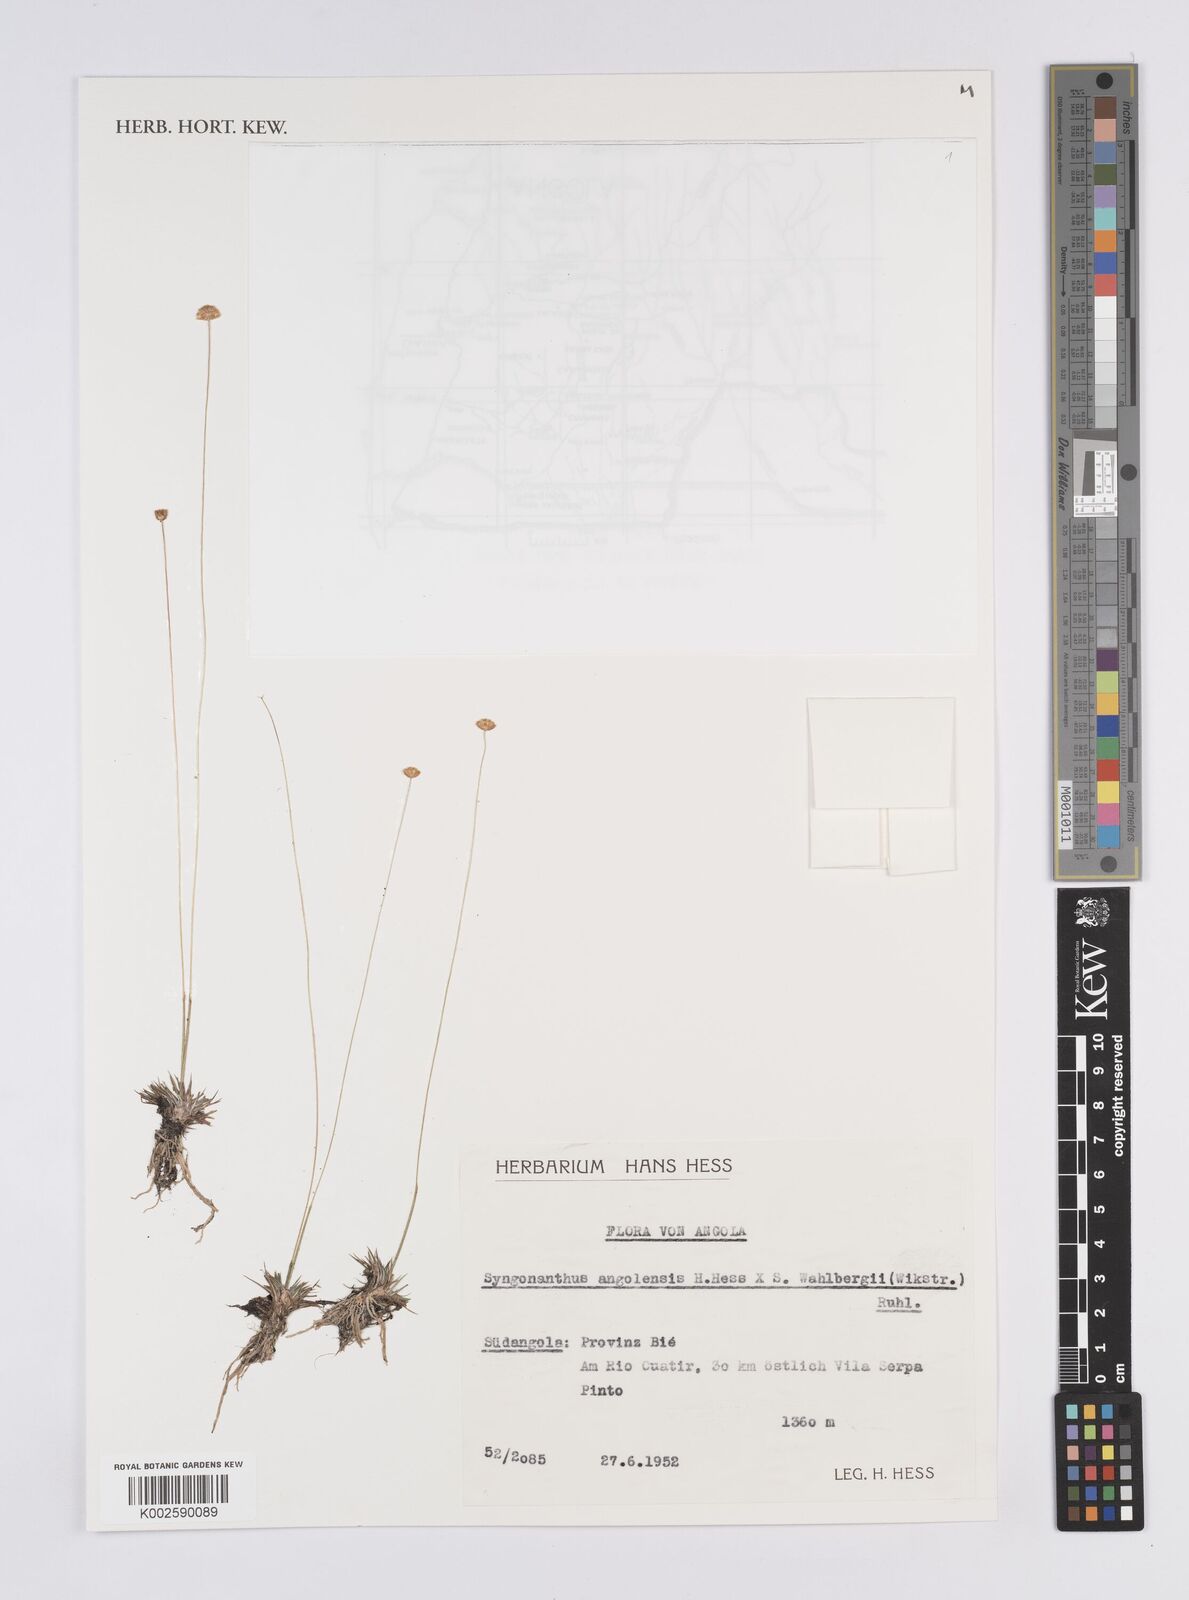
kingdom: Plantae
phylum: Tracheophyta
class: Liliopsida
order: Poales
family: Eriocaulaceae
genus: Syngonanthus
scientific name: Syngonanthus angolensis
